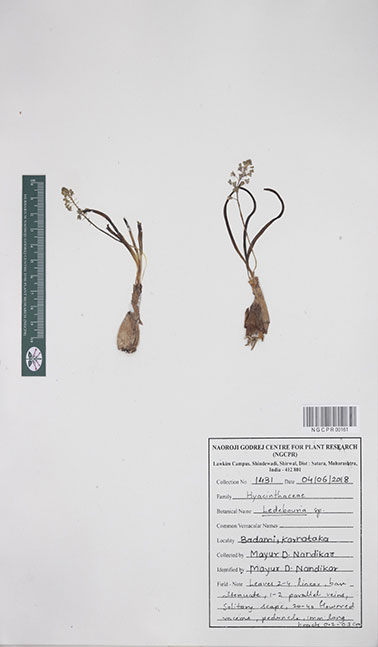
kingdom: Plantae
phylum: Tracheophyta
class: Liliopsida
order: Asparagales
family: Asparagaceae
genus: Ledebouria
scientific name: Ledebouria
